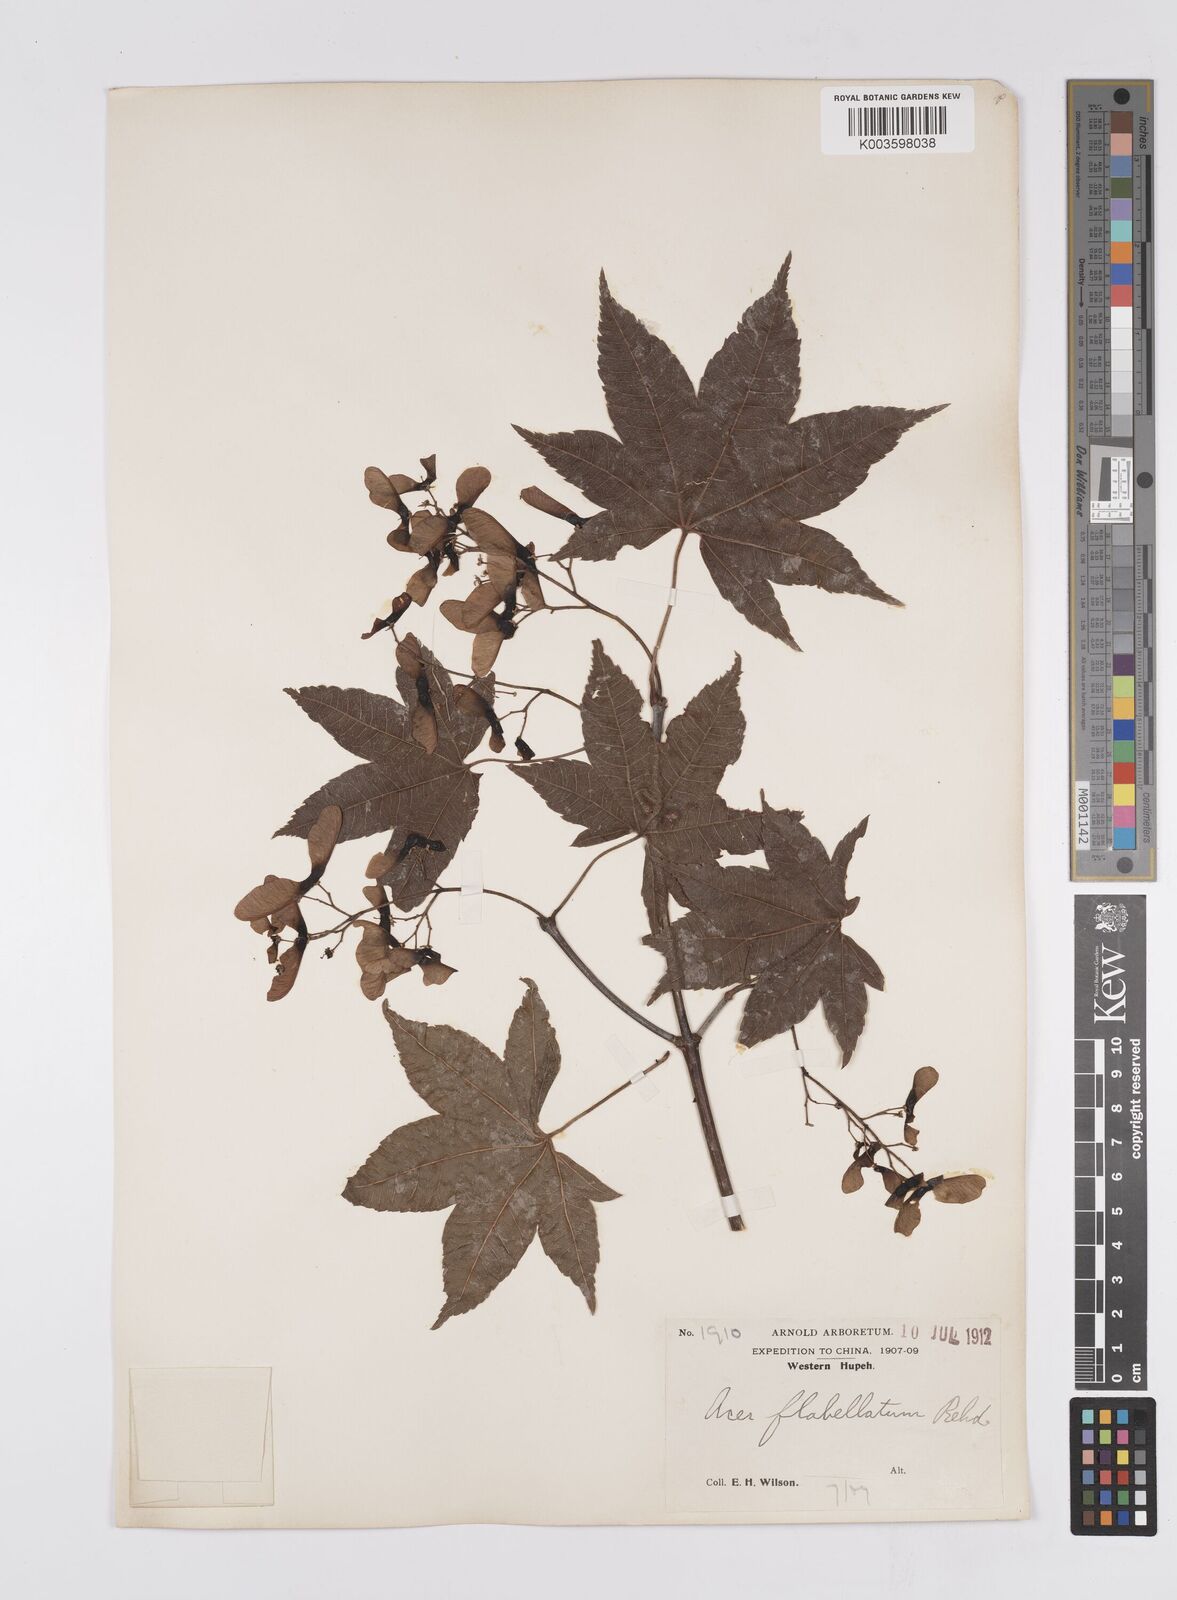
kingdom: Plantae
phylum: Tracheophyta
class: Magnoliopsida
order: Sapindales
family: Sapindaceae
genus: Acer
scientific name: Acer
